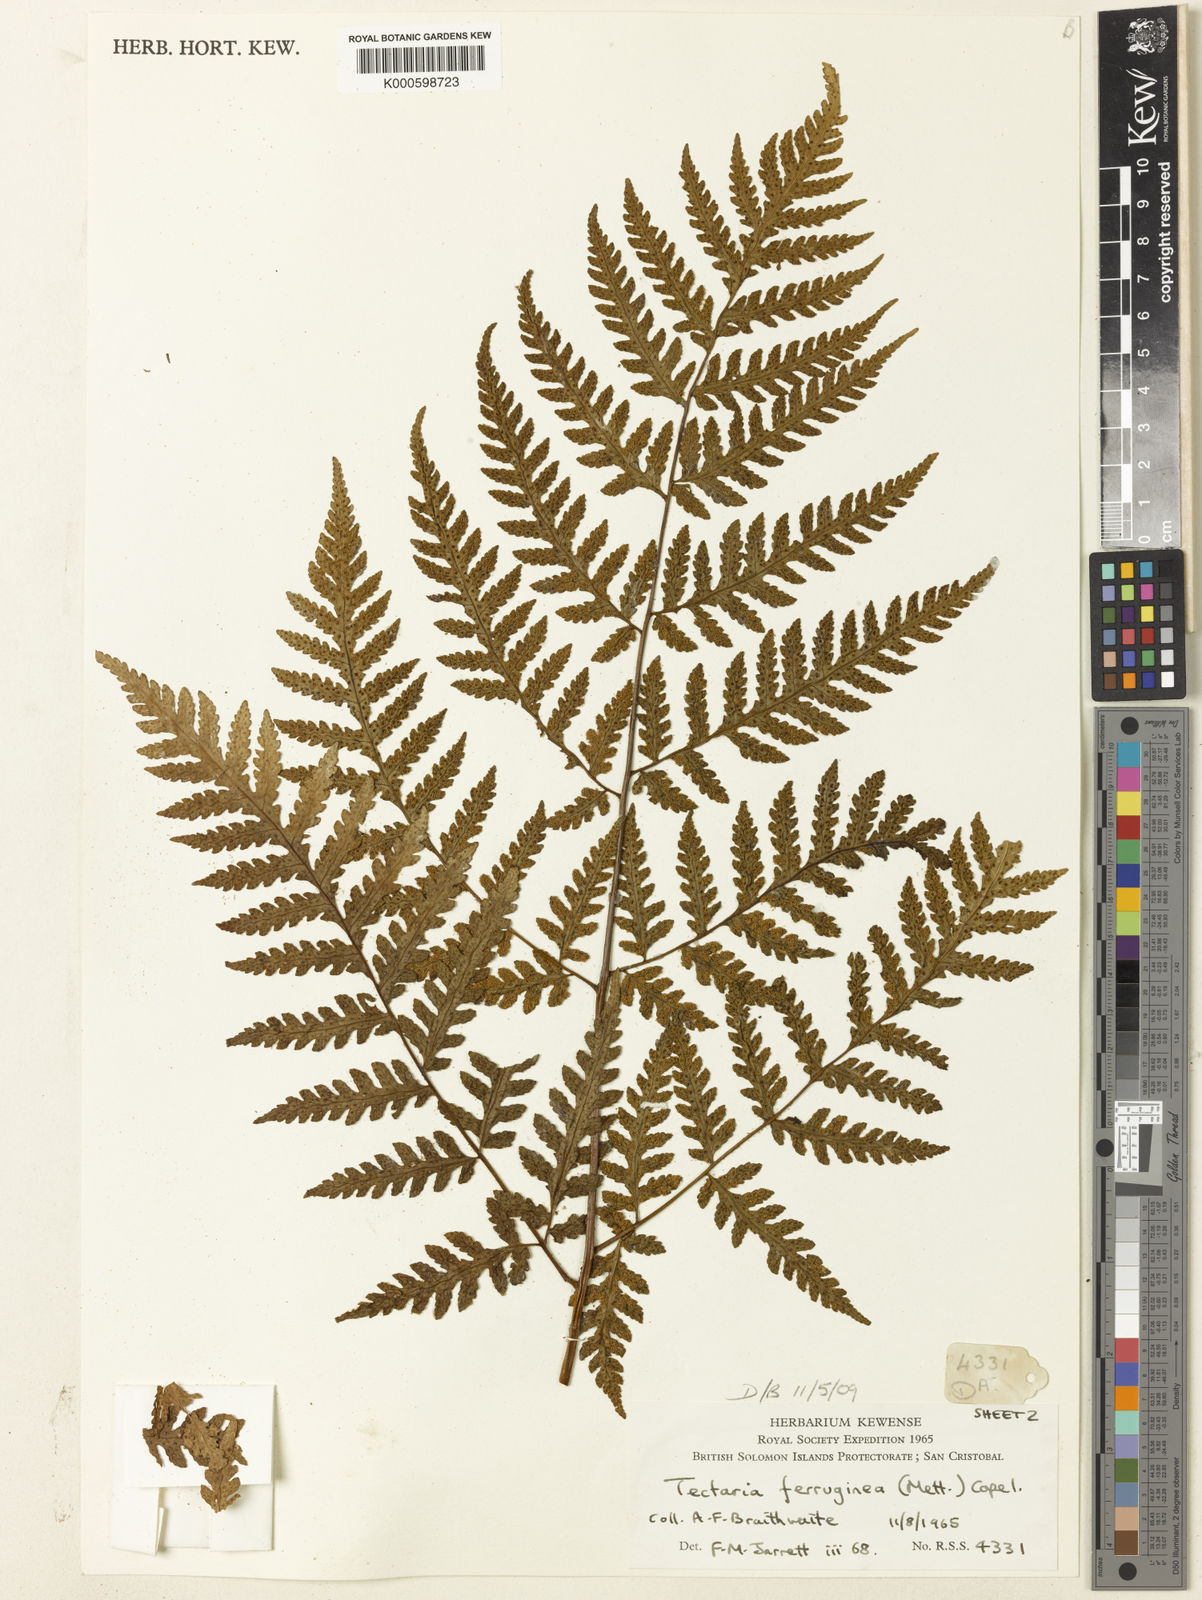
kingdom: Plantae
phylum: Tracheophyta
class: Polypodiopsida
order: Polypodiales
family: Tectariaceae
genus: Tectaria
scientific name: Tectaria
